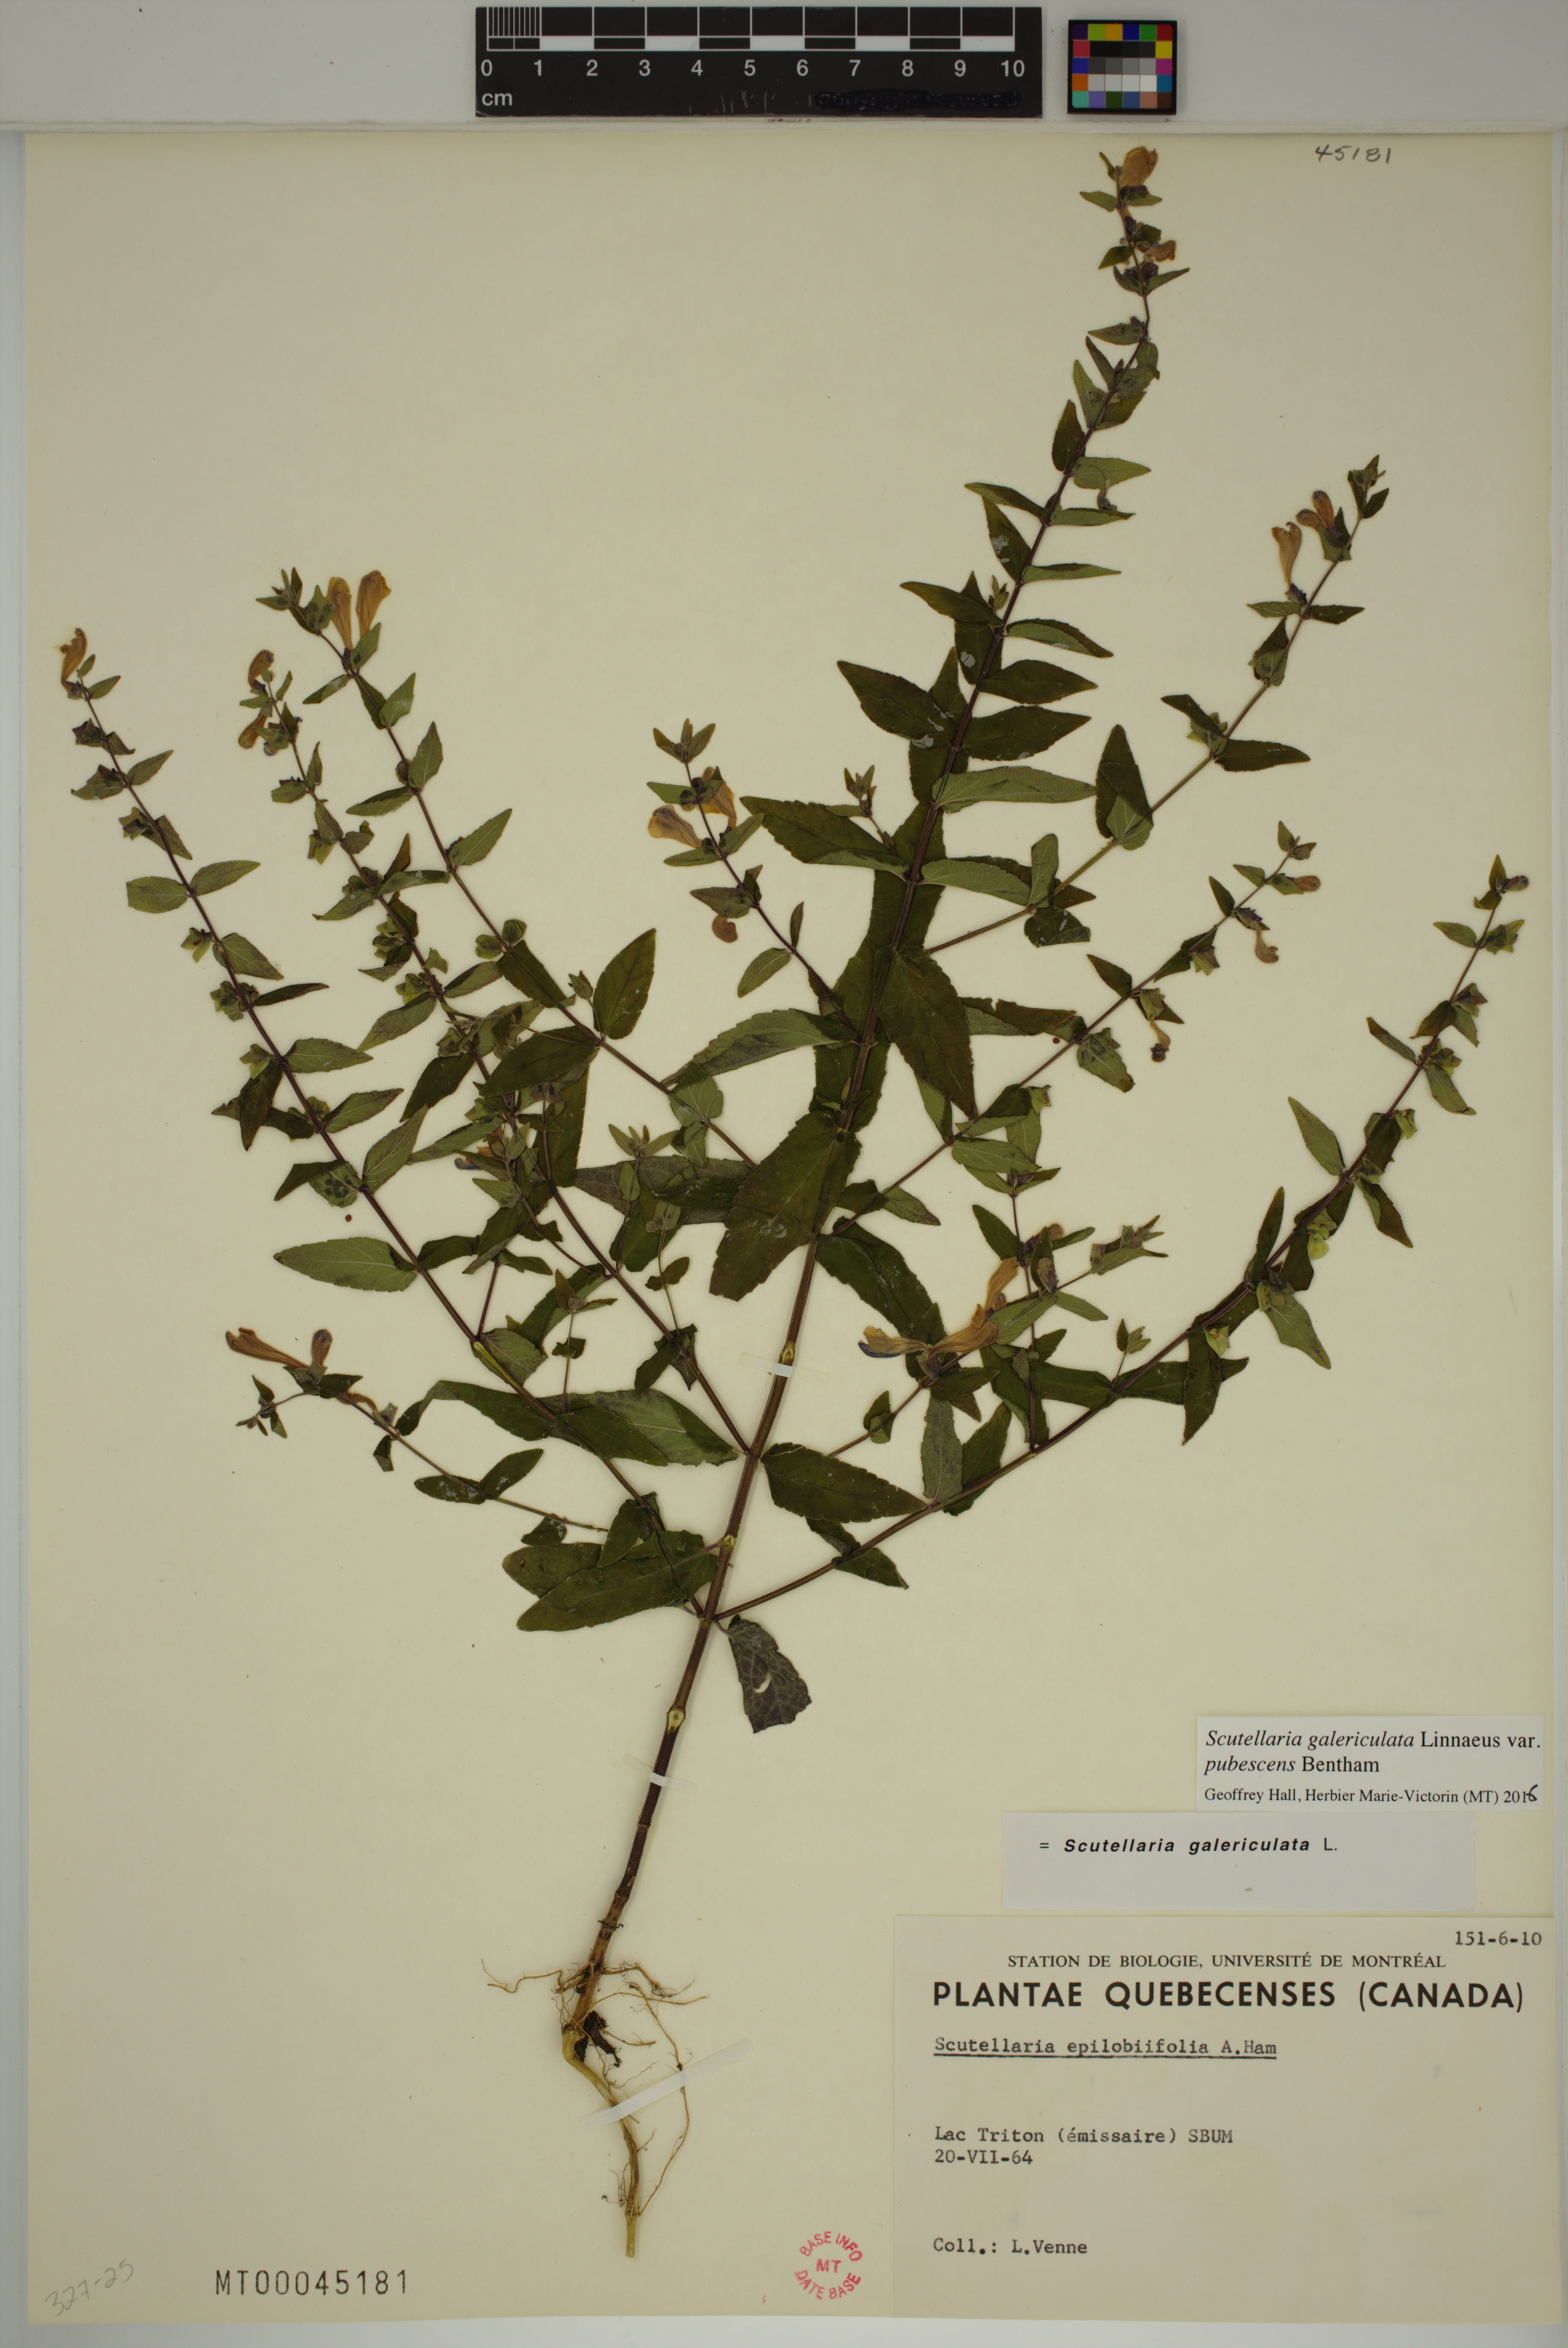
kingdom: Plantae
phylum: Tracheophyta
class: Magnoliopsida
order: Lamiales
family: Lamiaceae
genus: Scutellaria
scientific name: Scutellaria nicholsonii
